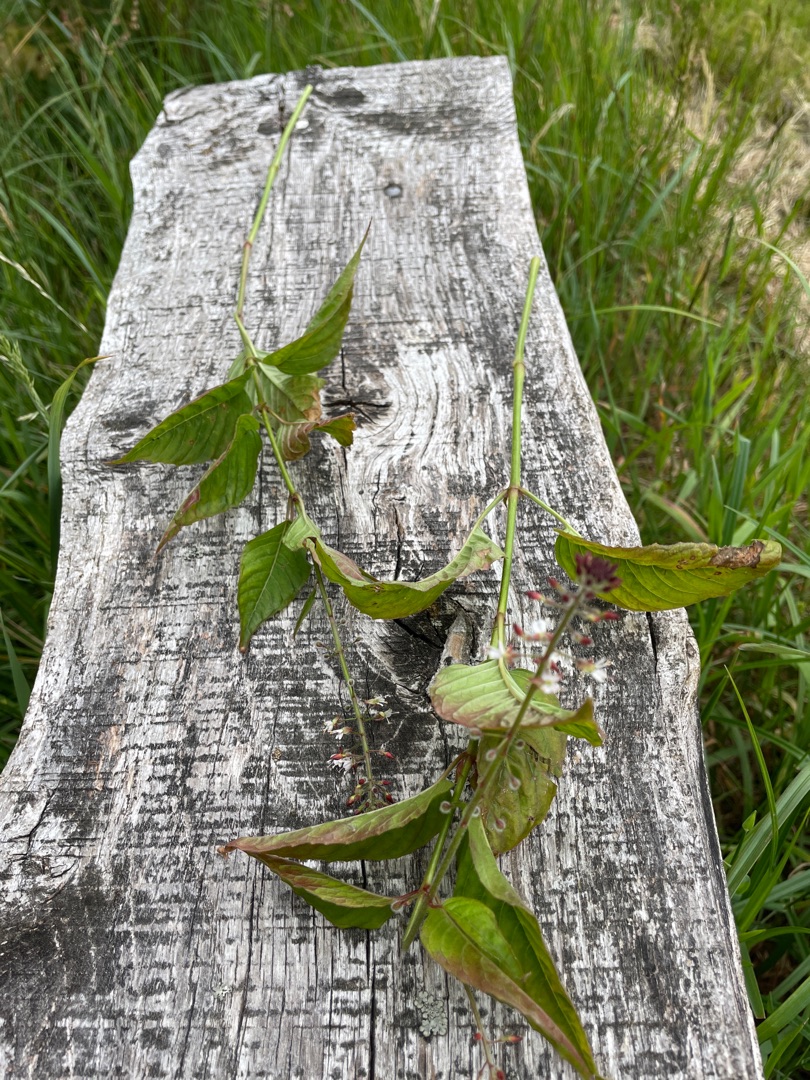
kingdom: Plantae
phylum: Tracheophyta
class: Magnoliopsida
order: Myrtales
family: Onagraceae
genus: Circaea
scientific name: Circaea lutetiana
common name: Dunet steffensurt
